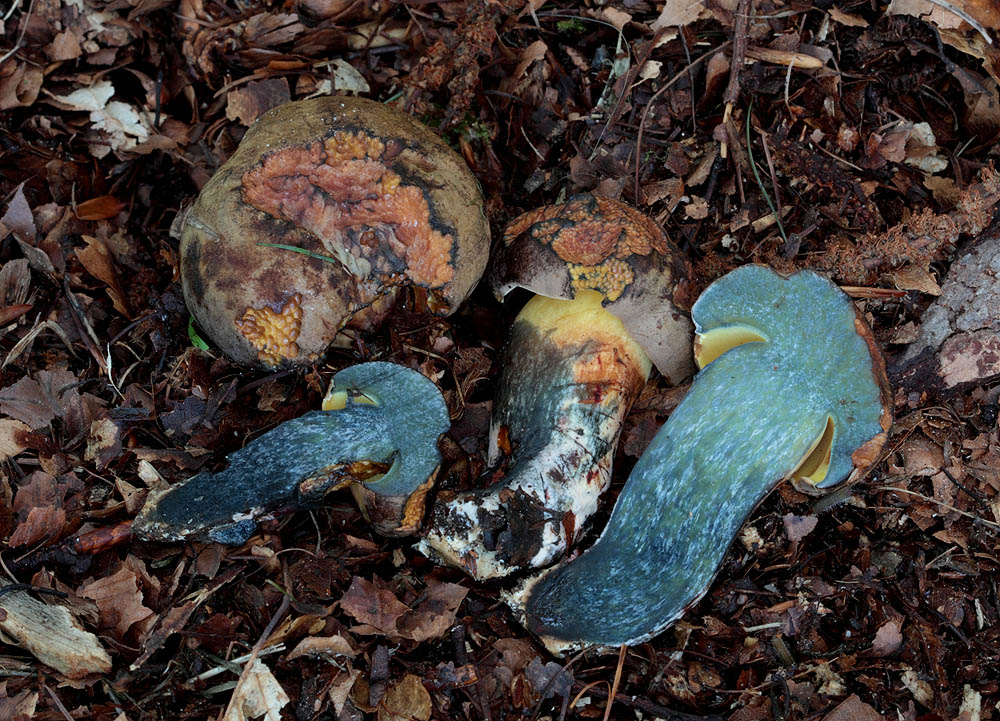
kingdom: Fungi
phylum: Basidiomycota
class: Agaricomycetes
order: Boletales
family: Boletaceae
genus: Cyanoboletus
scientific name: Cyanoboletus pulverulentus
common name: sortblånende rørhat
